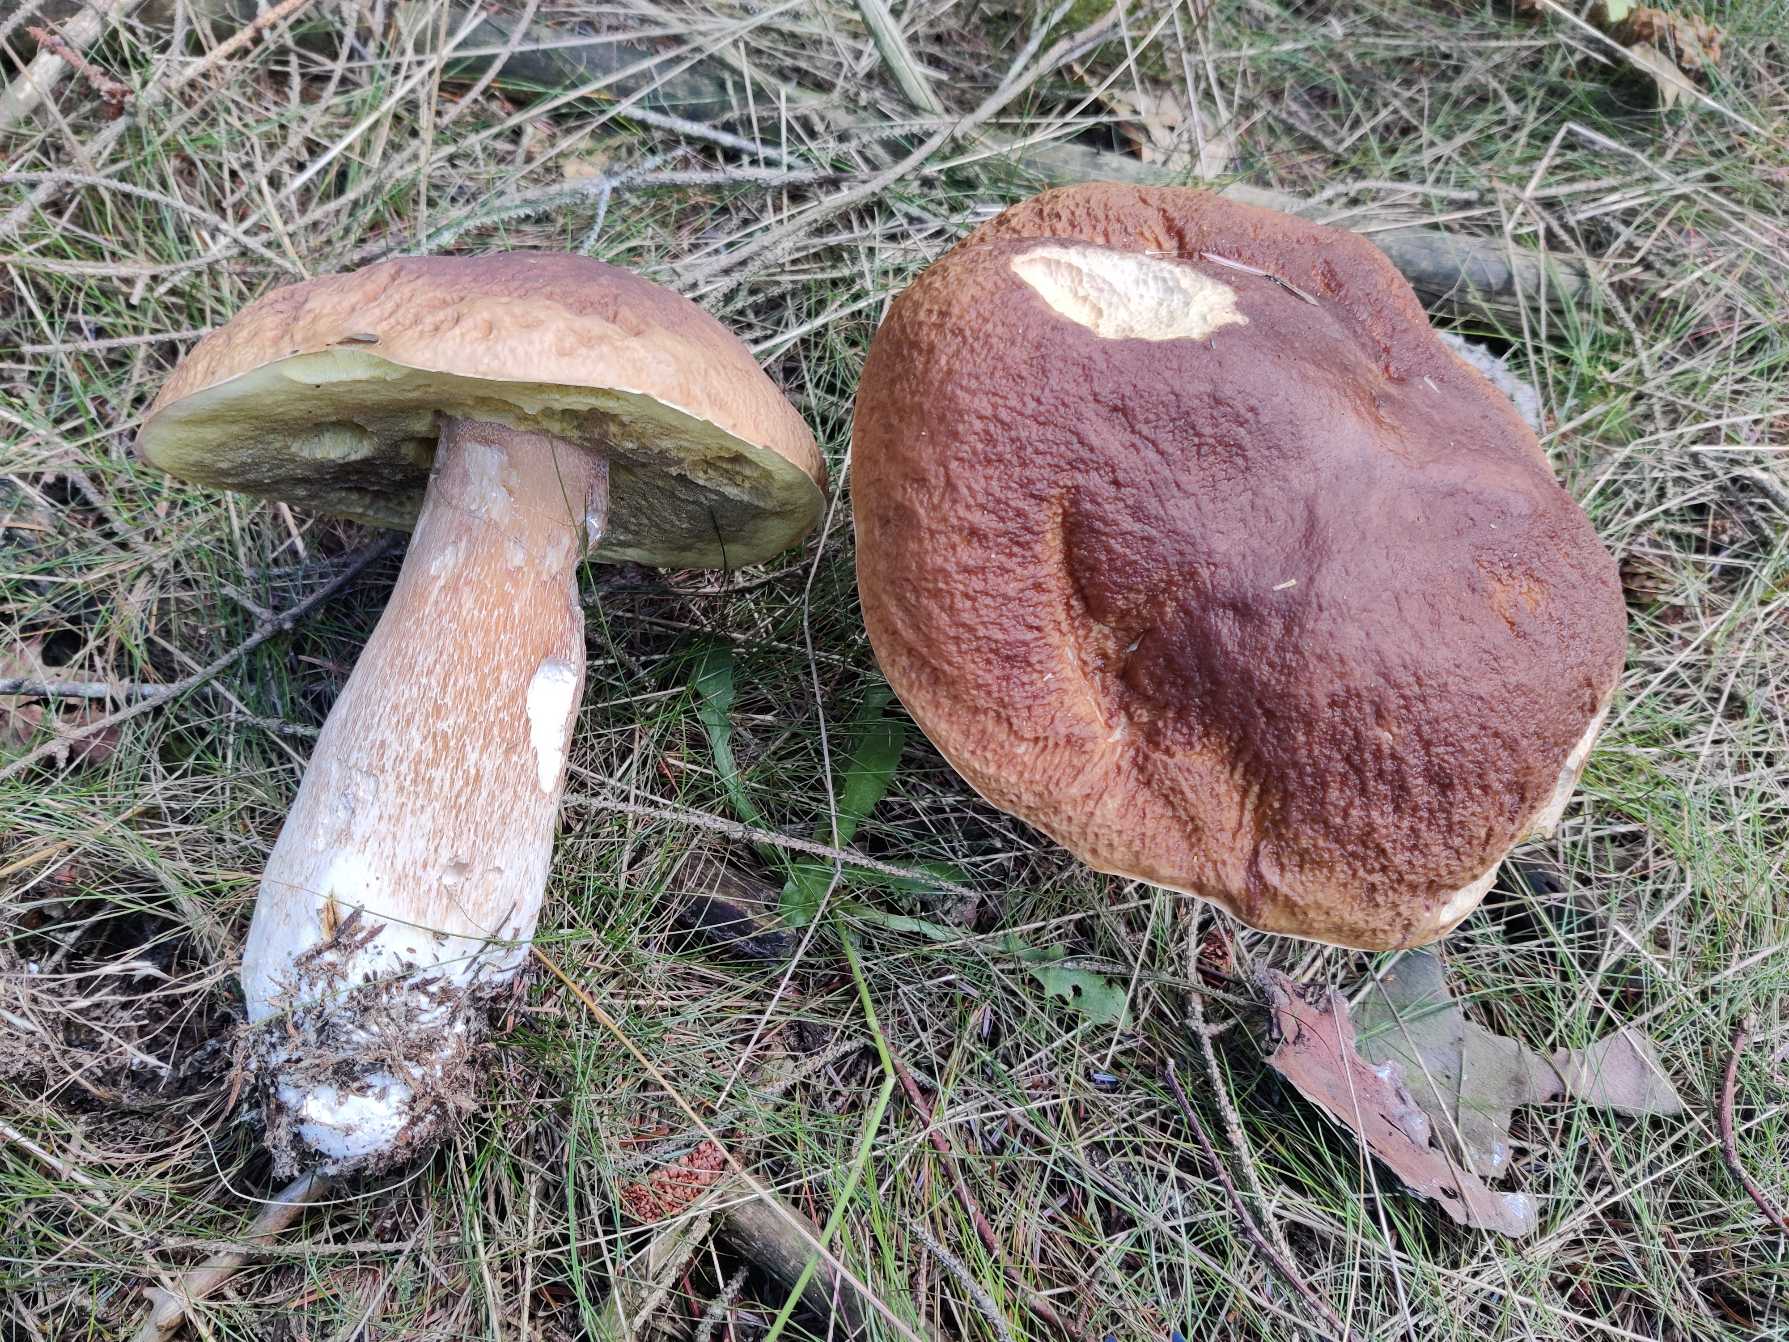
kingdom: Fungi
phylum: Basidiomycota
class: Agaricomycetes
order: Boletales
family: Boletaceae
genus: Boletus
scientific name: Boletus edulis
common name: Spiselig rørhat/karl johan
